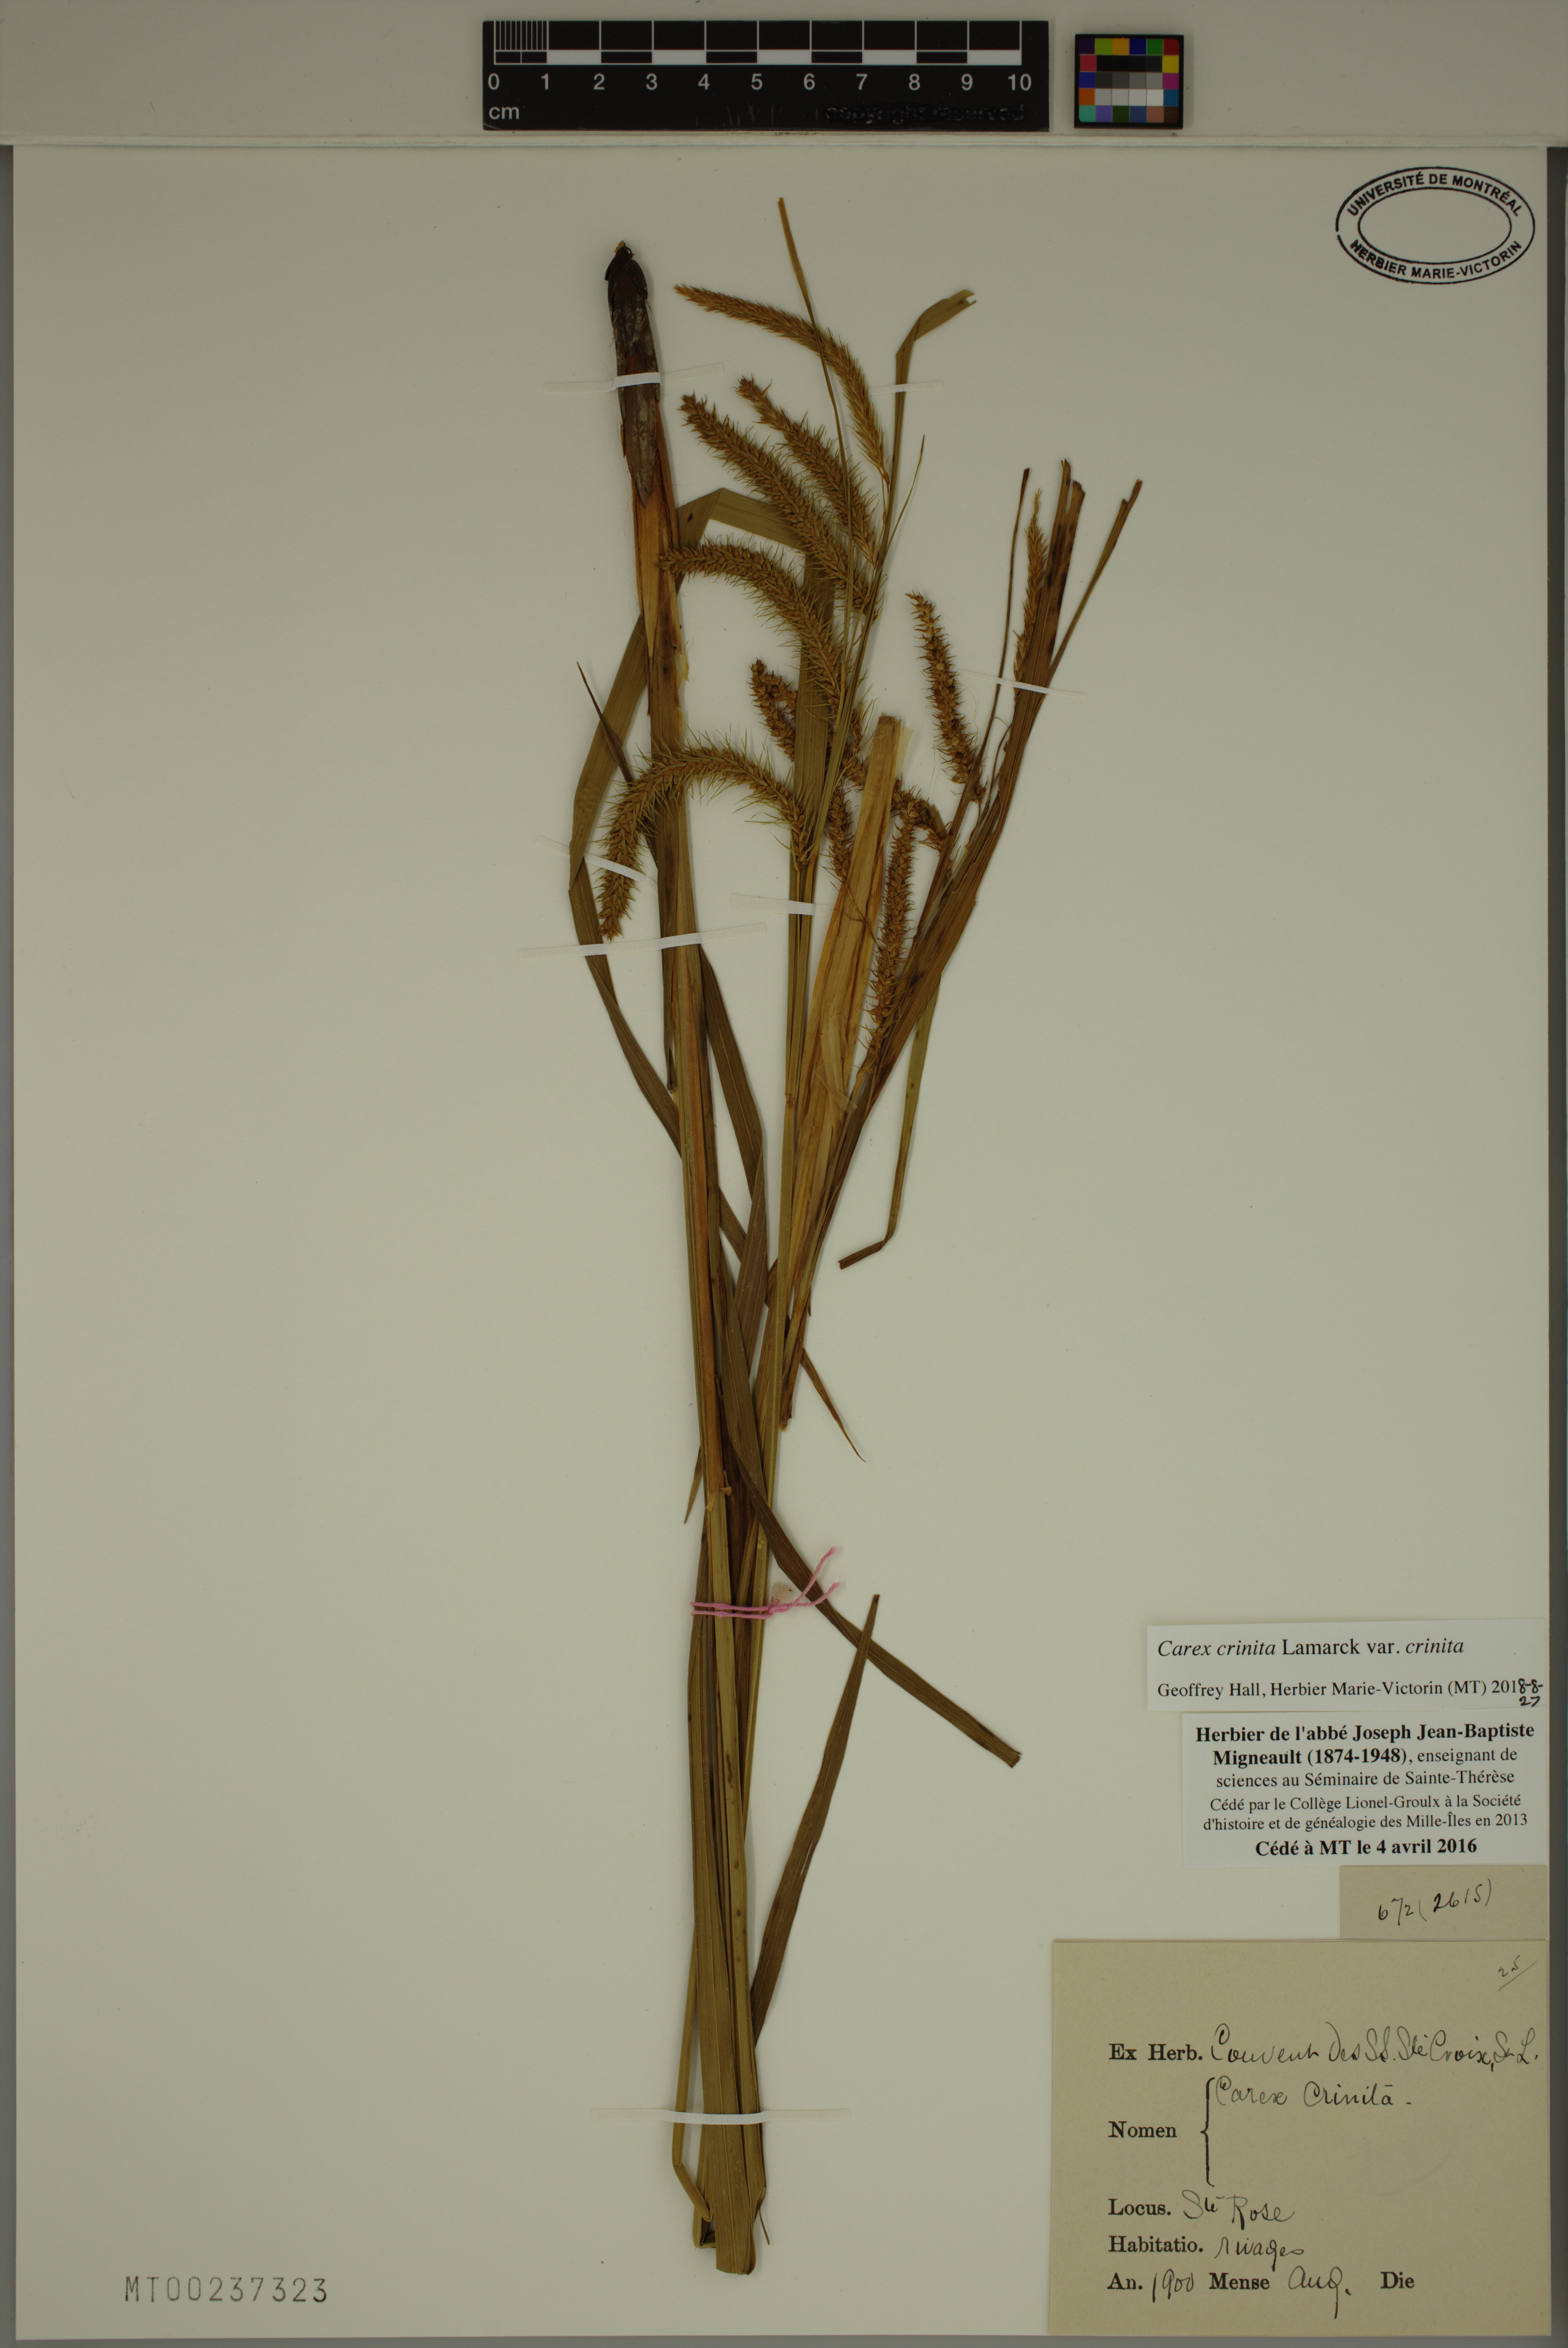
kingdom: Plantae
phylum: Tracheophyta
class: Liliopsida
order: Poales
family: Cyperaceae
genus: Carex
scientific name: Carex crinita
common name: Fringed sedge
